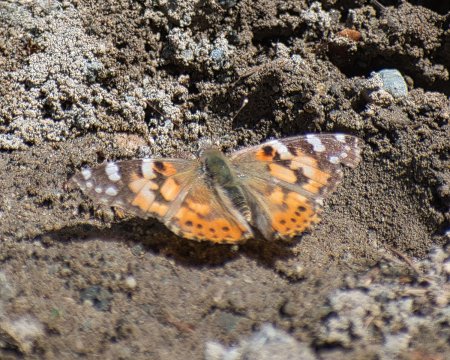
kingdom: Animalia
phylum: Arthropoda
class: Insecta
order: Lepidoptera
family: Nymphalidae
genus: Vanessa
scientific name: Vanessa cardui
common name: Painted Lady
